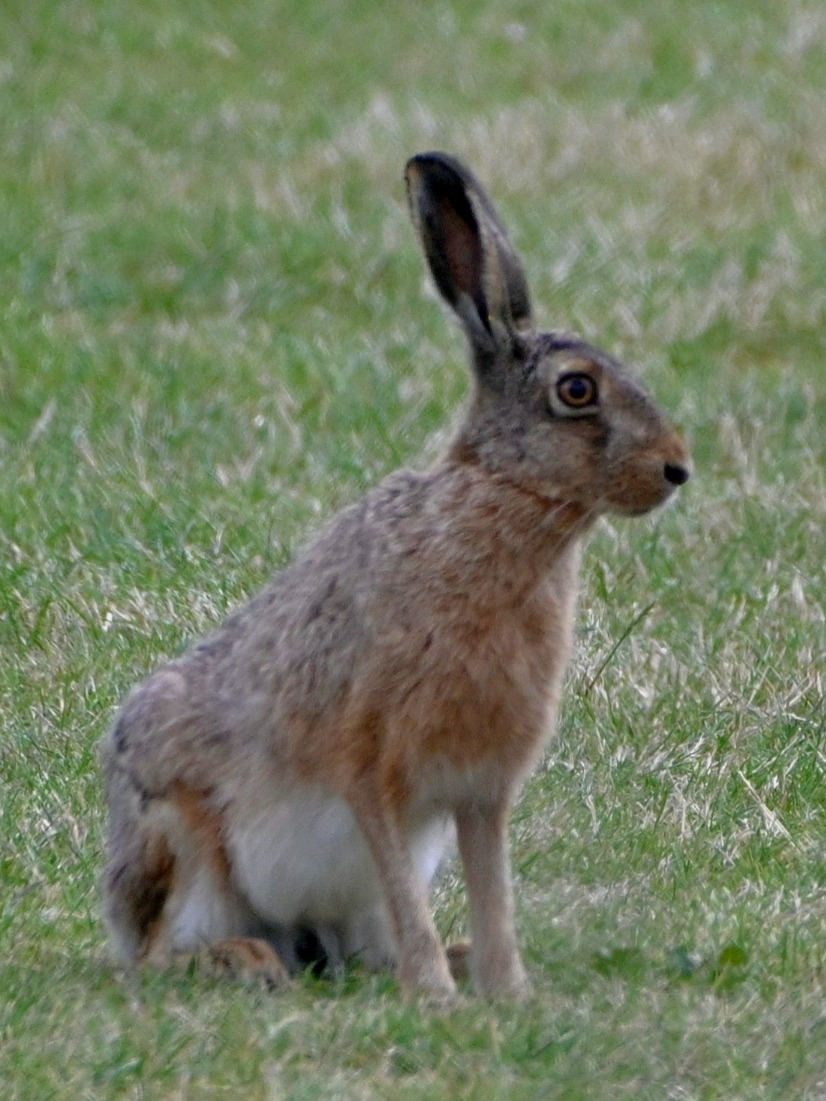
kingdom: Animalia
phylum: Chordata
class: Mammalia
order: Lagomorpha
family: Leporidae
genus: Lepus
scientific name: Lepus europaeus
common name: Hare
